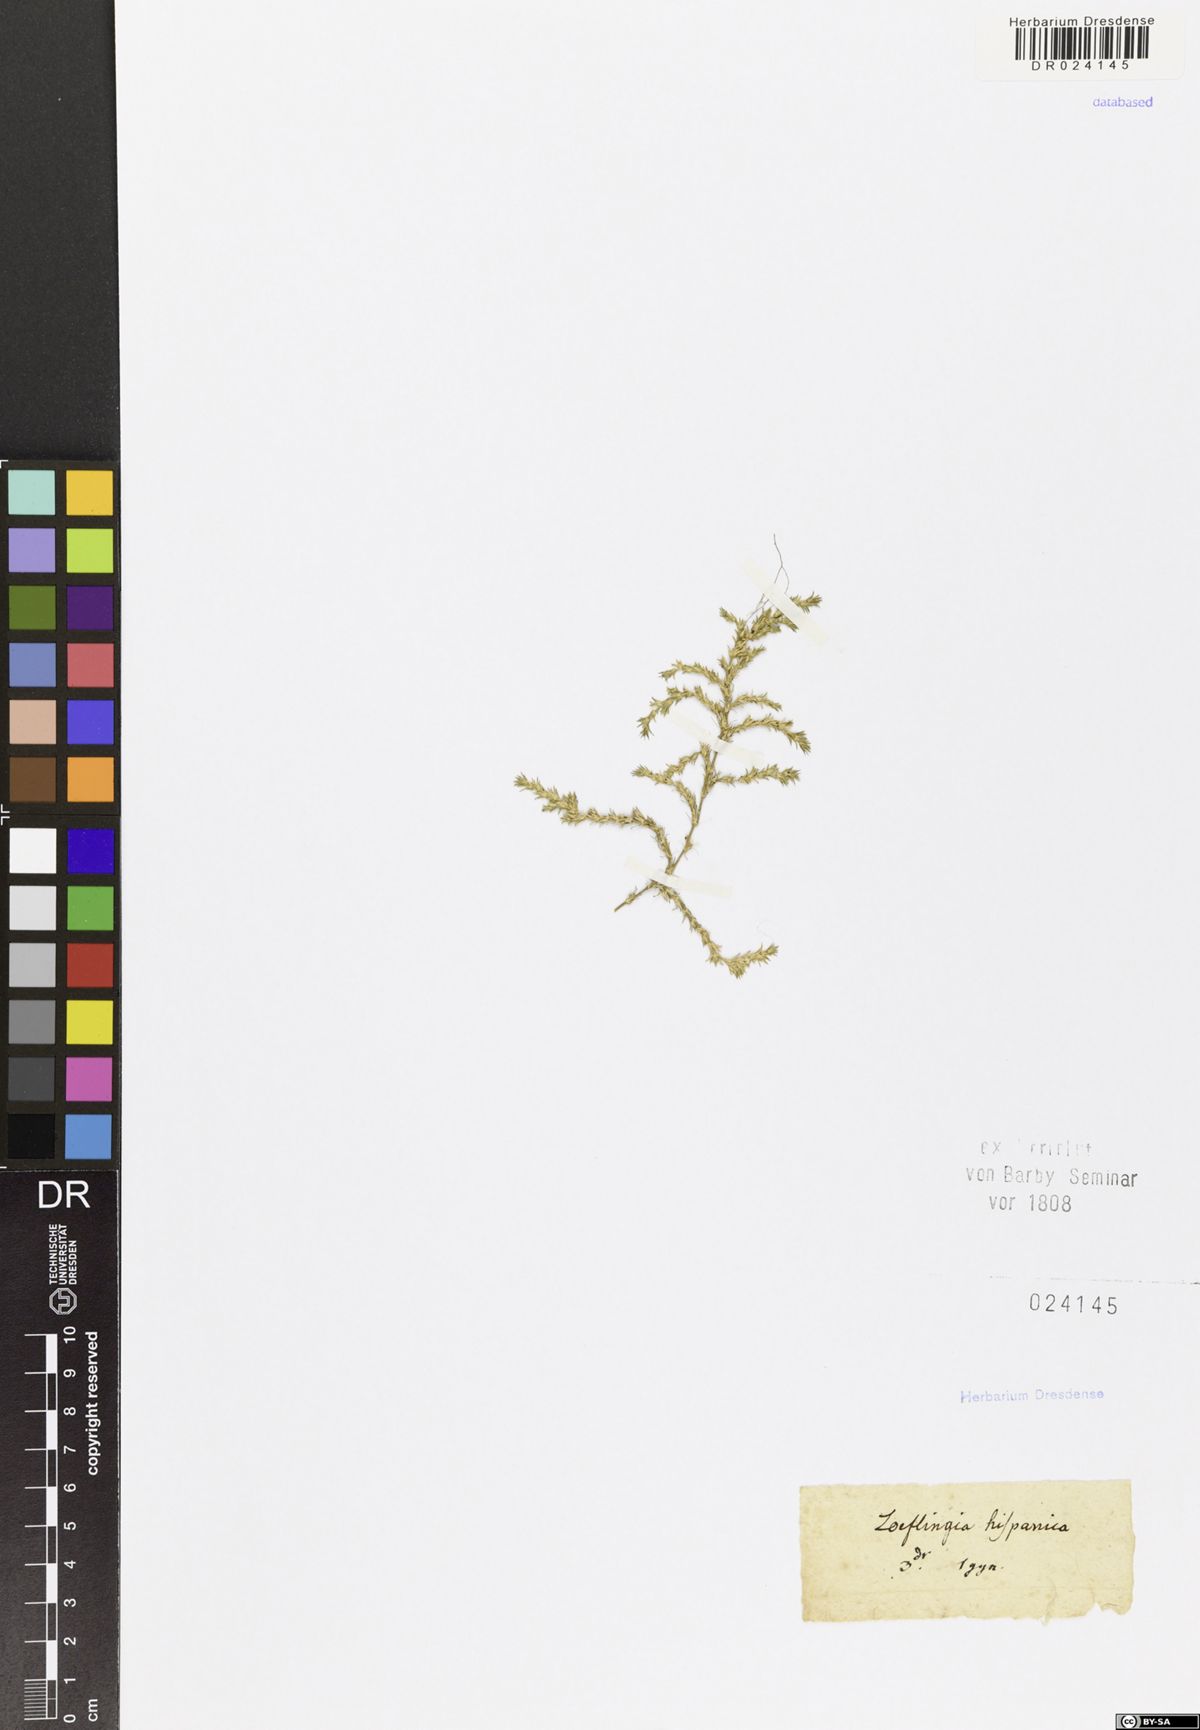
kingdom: Plantae
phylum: Tracheophyta
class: Magnoliopsida
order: Caryophyllales
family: Caryophyllaceae
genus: Loeflingia
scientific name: Loeflingia hispanica
